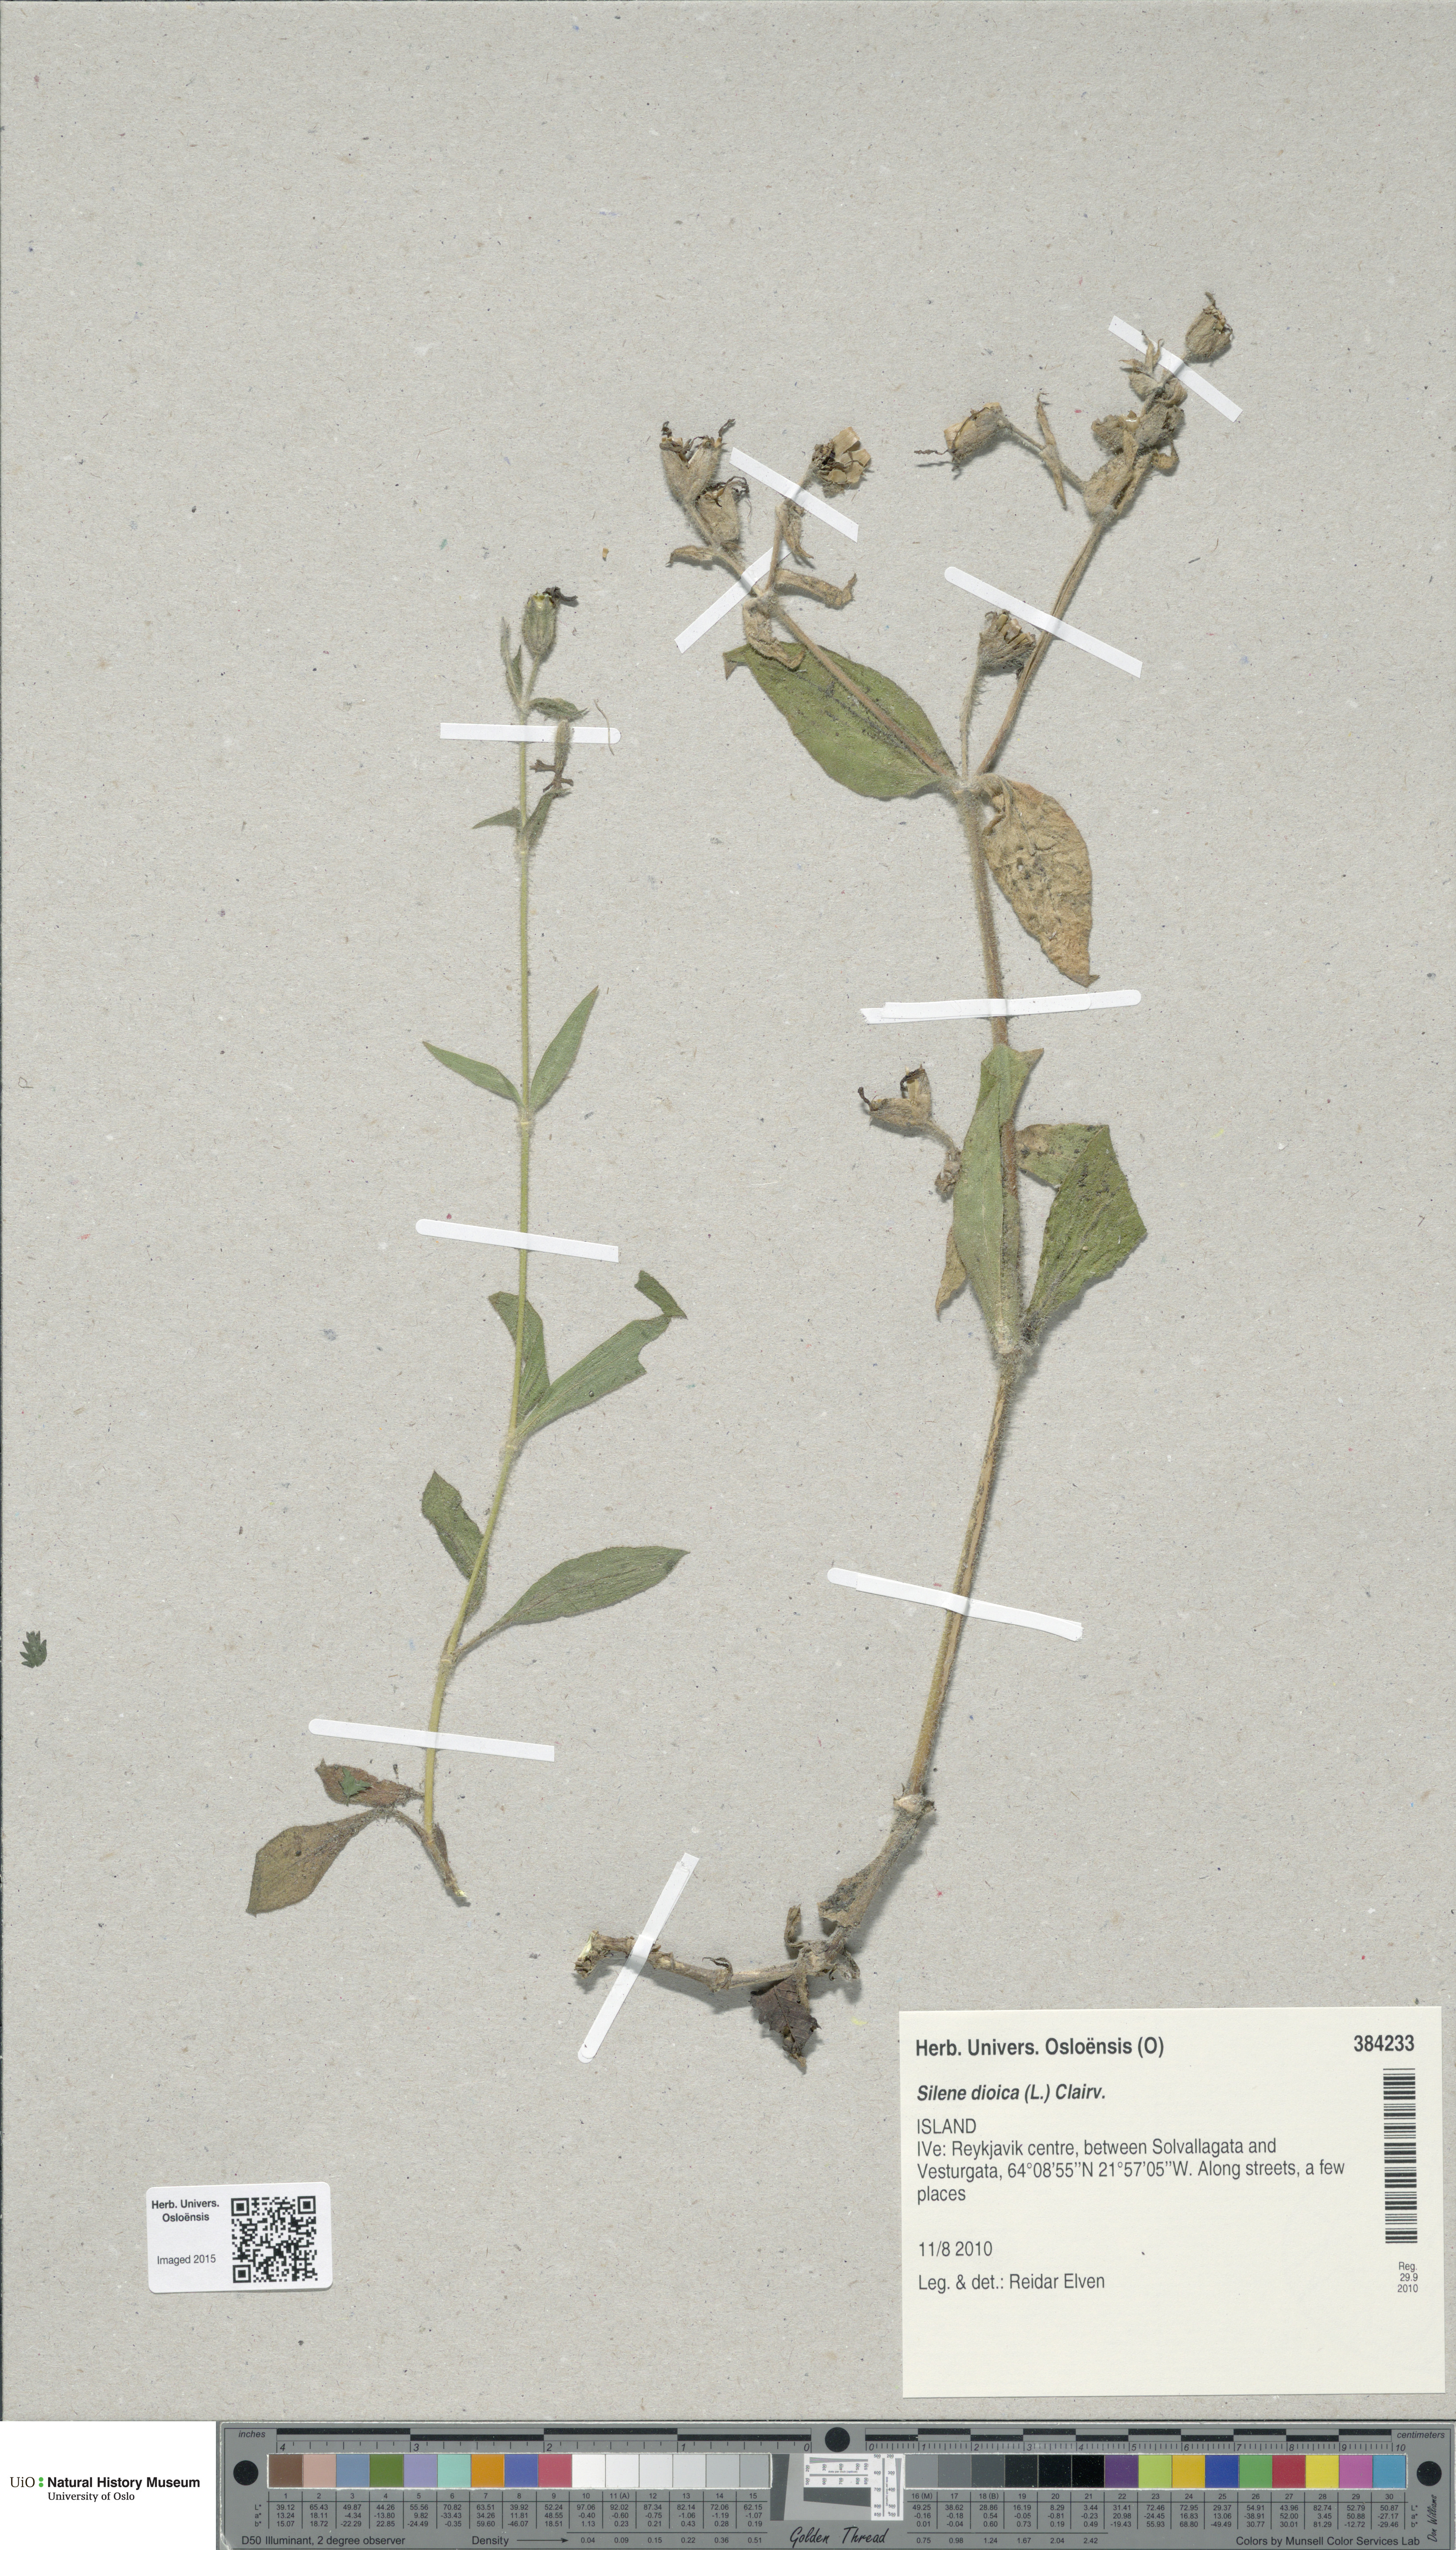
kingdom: Plantae
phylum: Tracheophyta
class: Magnoliopsida
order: Caryophyllales
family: Caryophyllaceae
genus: Silene
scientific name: Silene dioica
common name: Red campion
